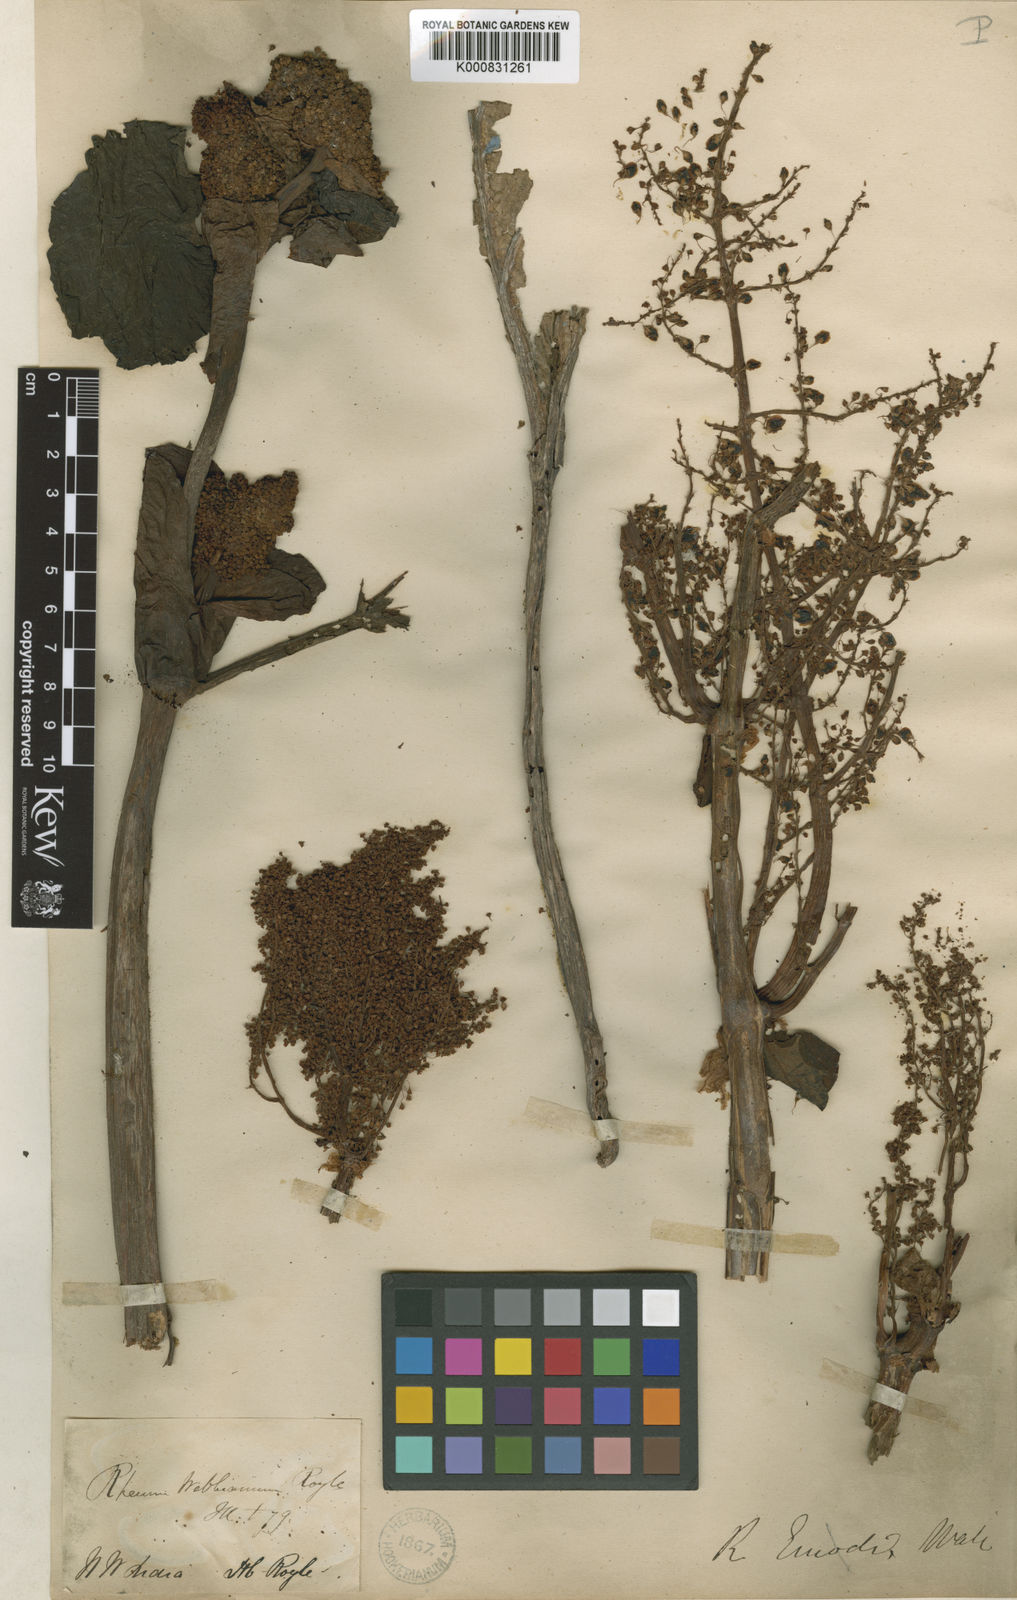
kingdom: Plantae
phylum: Tracheophyta
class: Magnoliopsida
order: Caryophyllales
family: Polygonaceae
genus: Rheum
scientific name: Rheum webbianum
